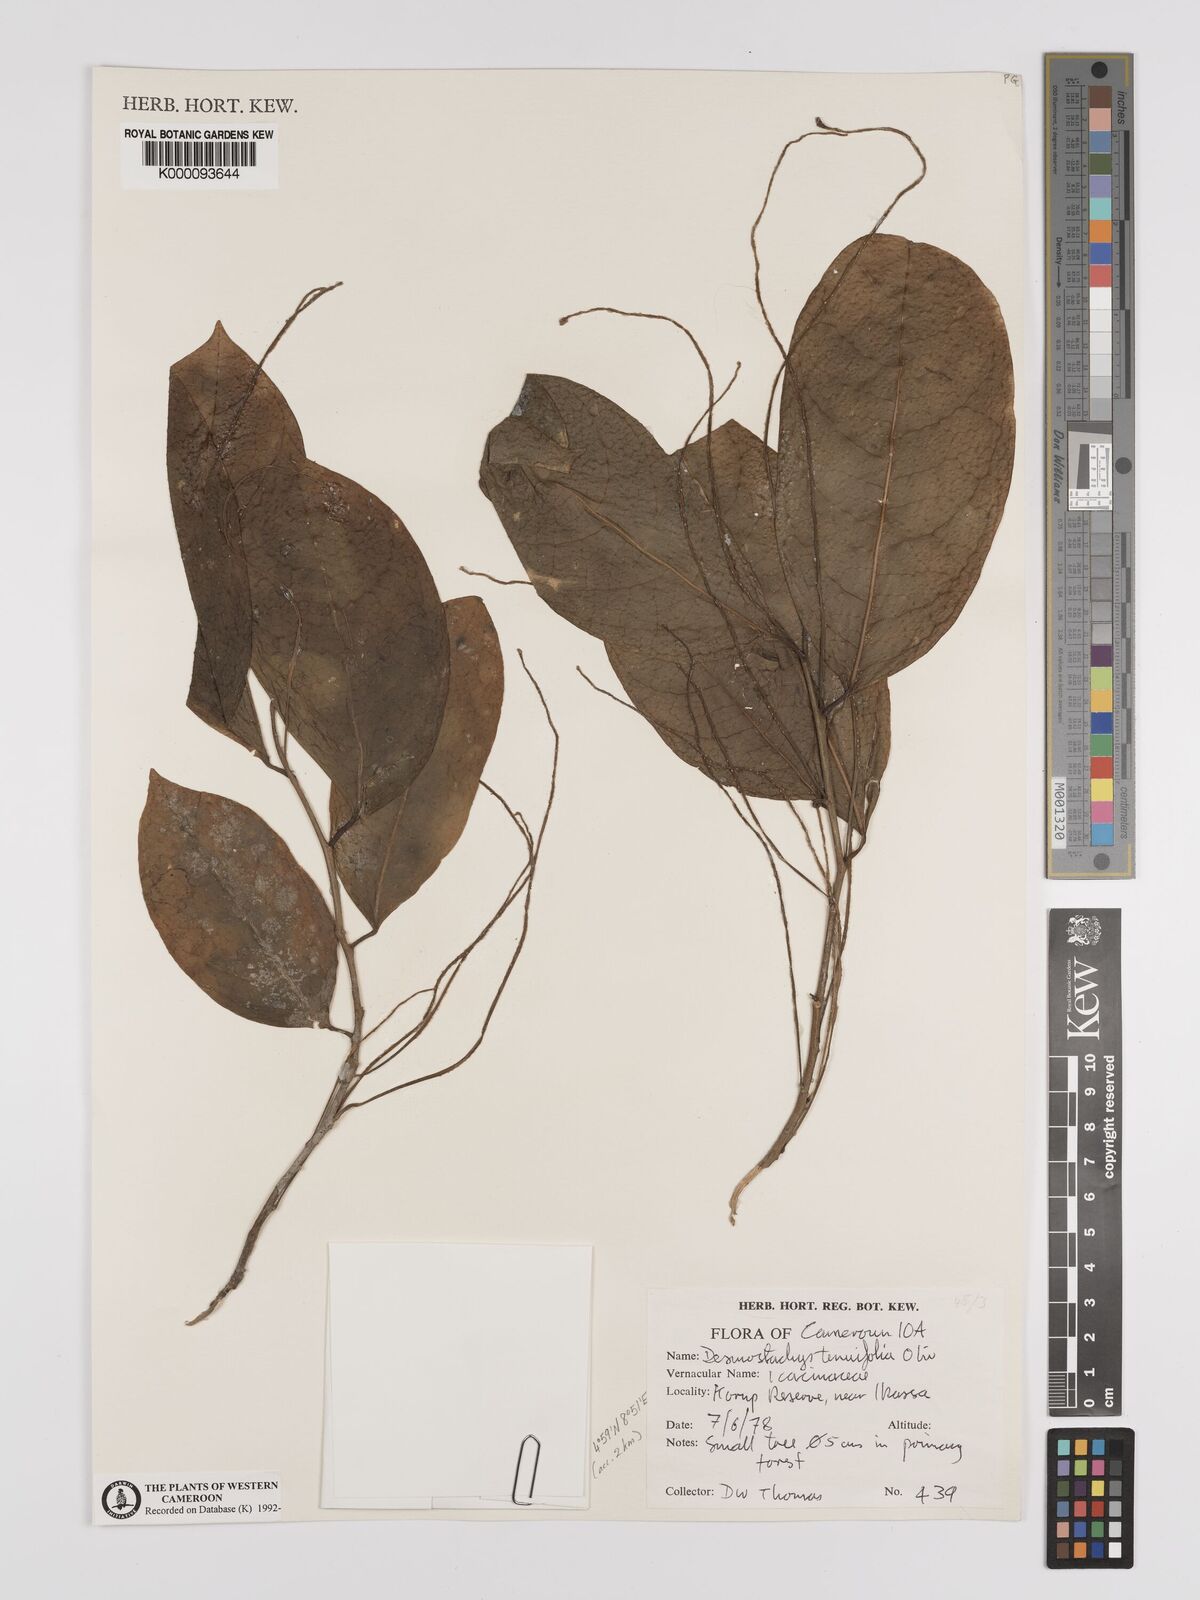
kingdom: Plantae
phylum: Tracheophyta
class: Magnoliopsida
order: Icacinales
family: Icacinaceae
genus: Vadensea
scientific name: Vadensea tenuifolia
